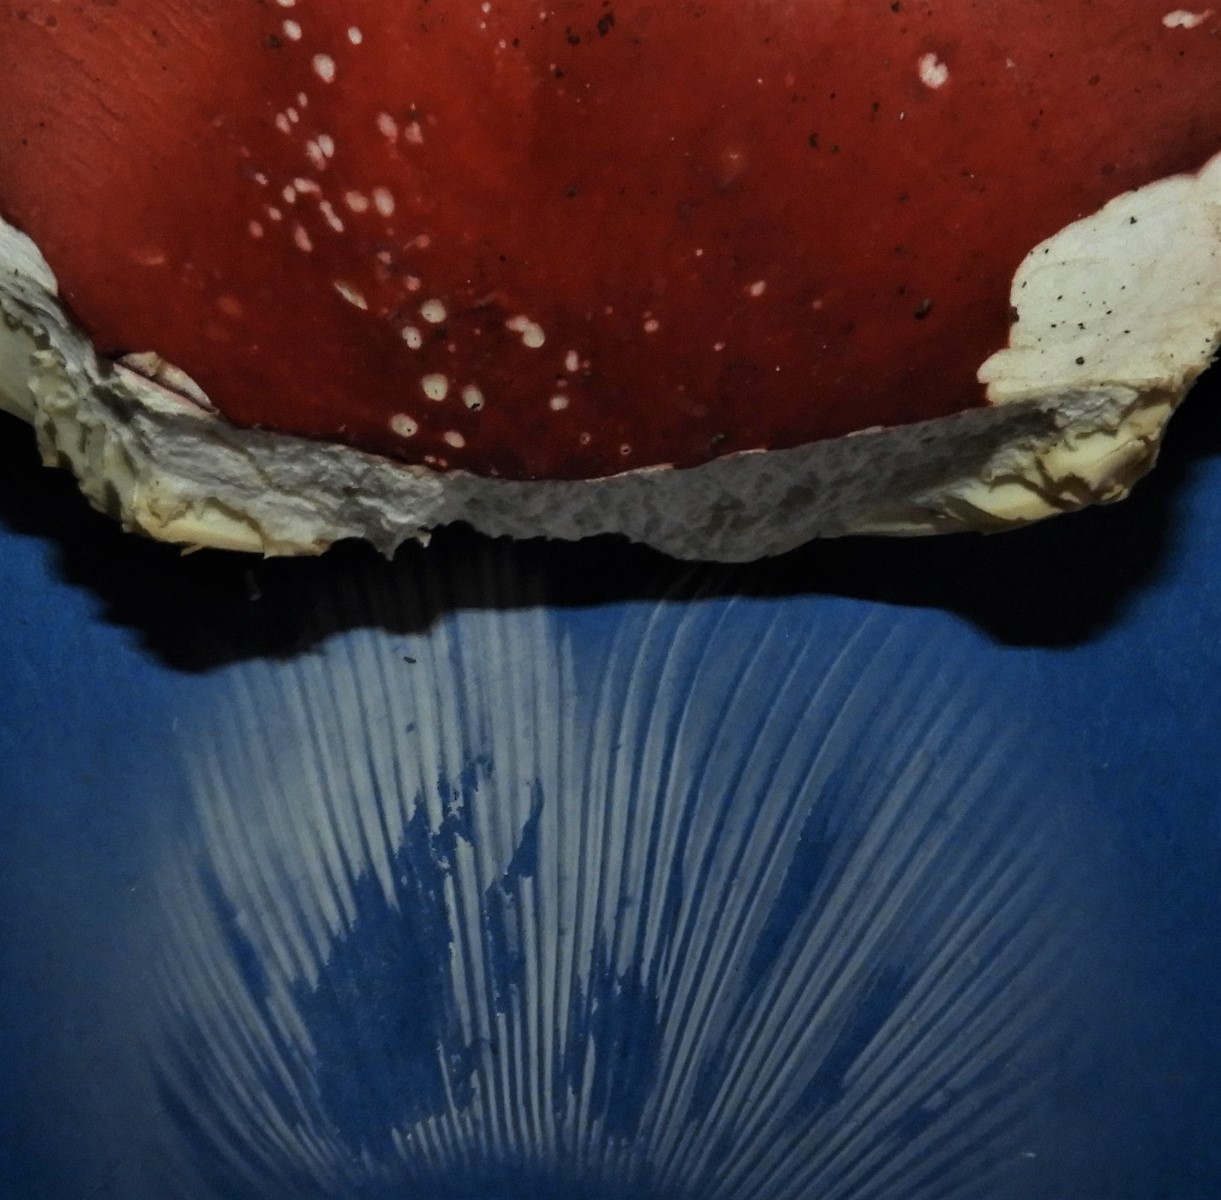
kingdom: Fungi
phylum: Basidiomycota
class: Agaricomycetes
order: Russulales
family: Russulaceae
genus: Russula
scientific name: Russula rosea
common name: fastkødet skørhat
